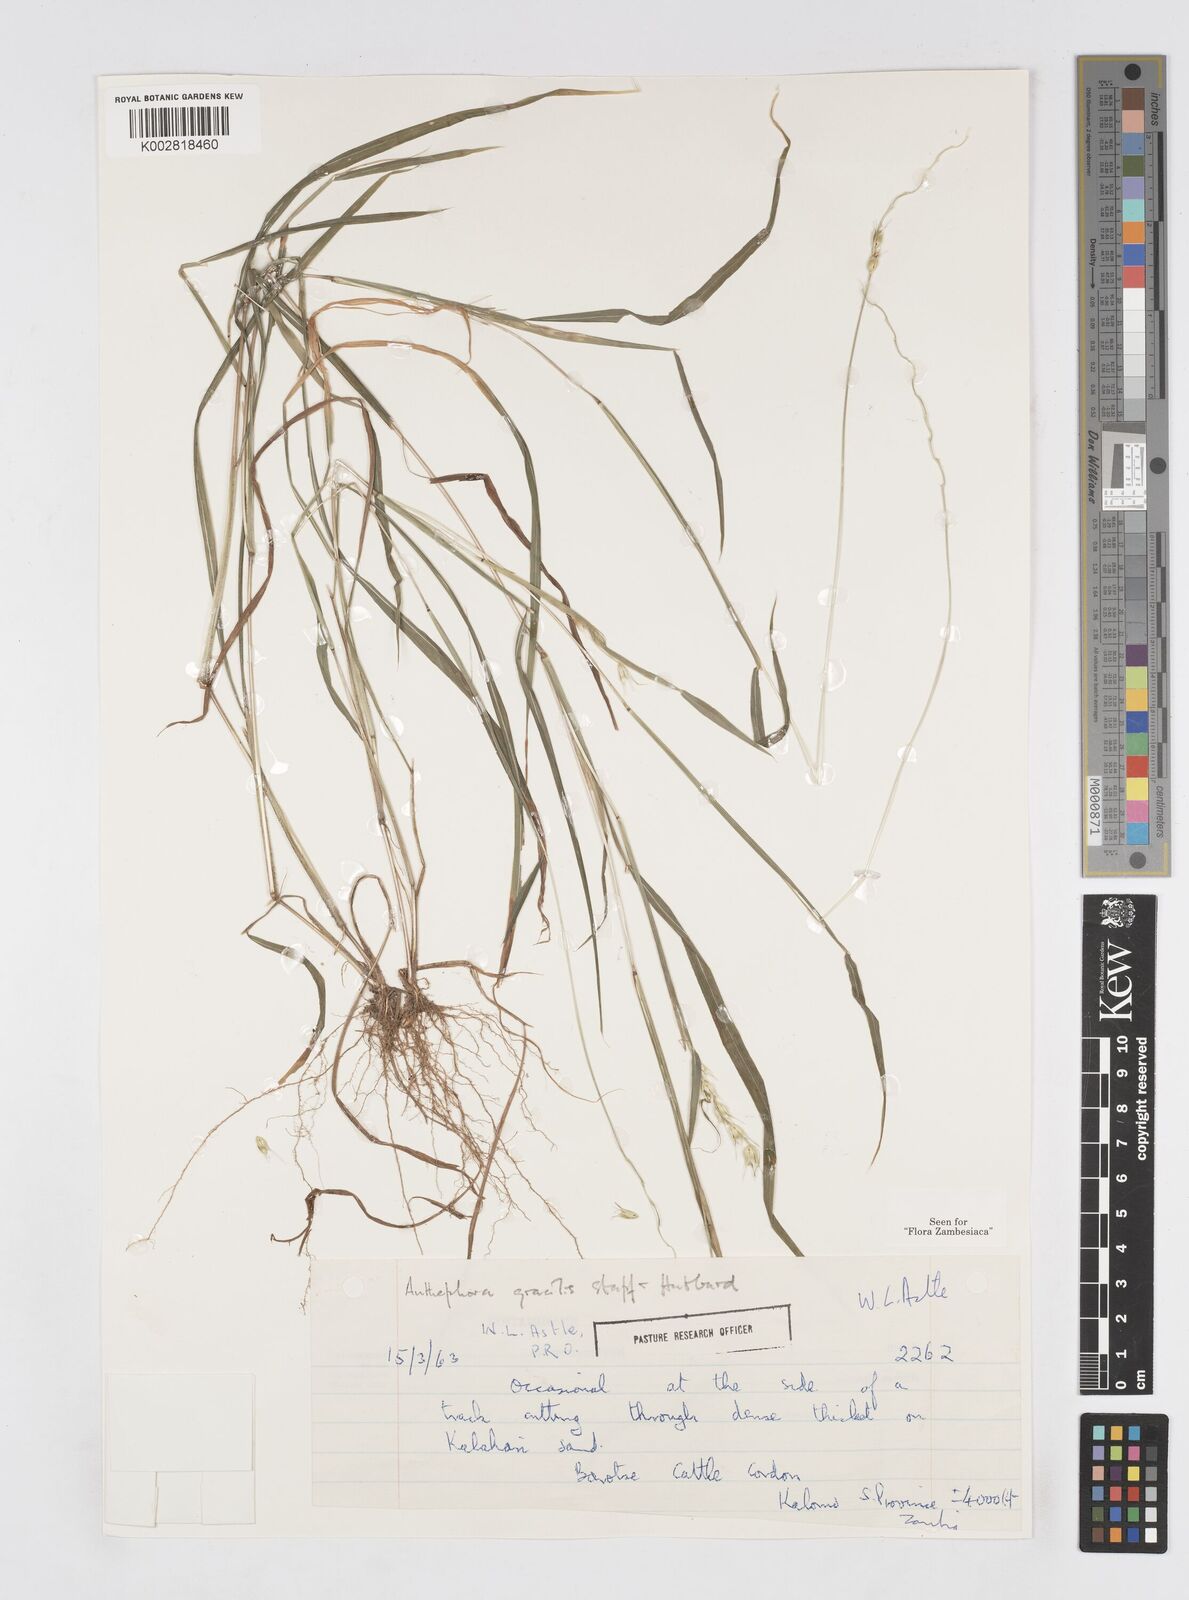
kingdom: Plantae
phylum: Tracheophyta
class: Liliopsida
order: Poales
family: Poaceae
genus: Anthephora
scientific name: Anthephora truncata
